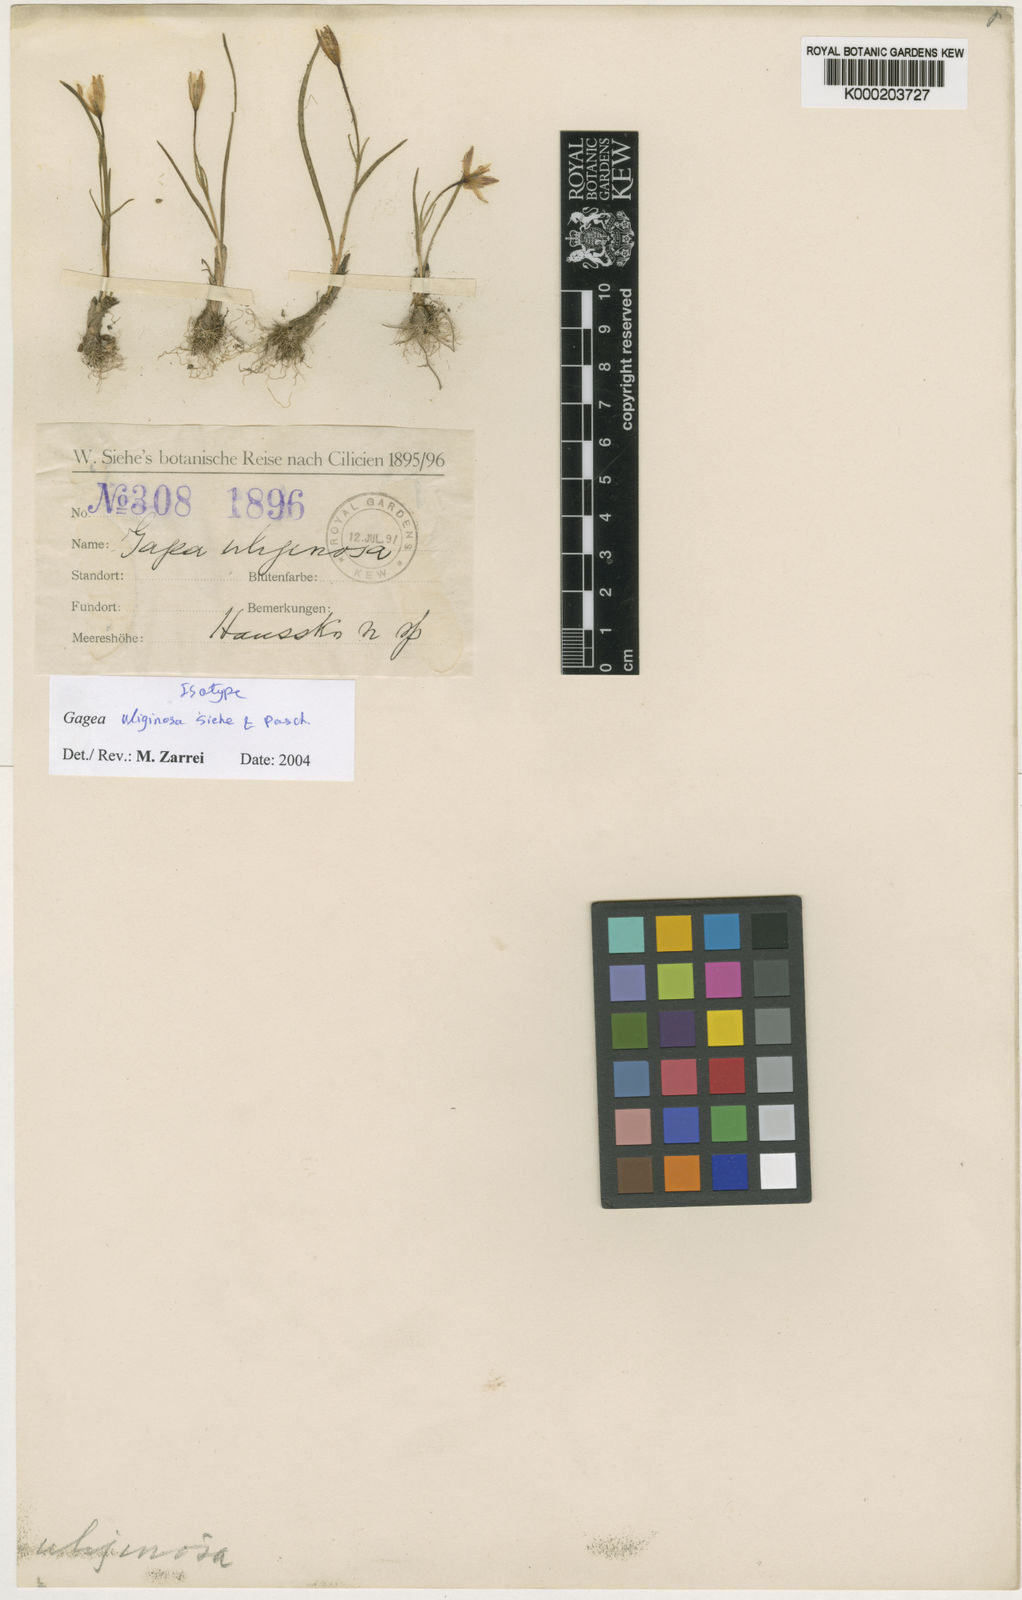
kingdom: Plantae
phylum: Tracheophyta
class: Liliopsida
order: Liliales
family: Liliaceae
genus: Gagea
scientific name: Gagea uliginosa
